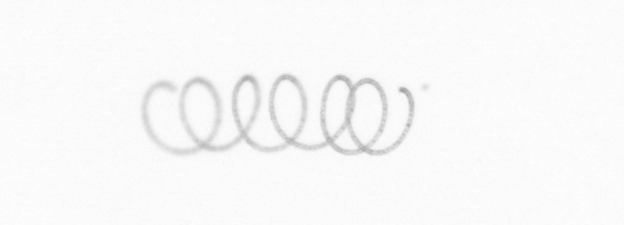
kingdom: Chromista
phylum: Ochrophyta
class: Bacillariophyceae
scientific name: Bacillariophyceae
